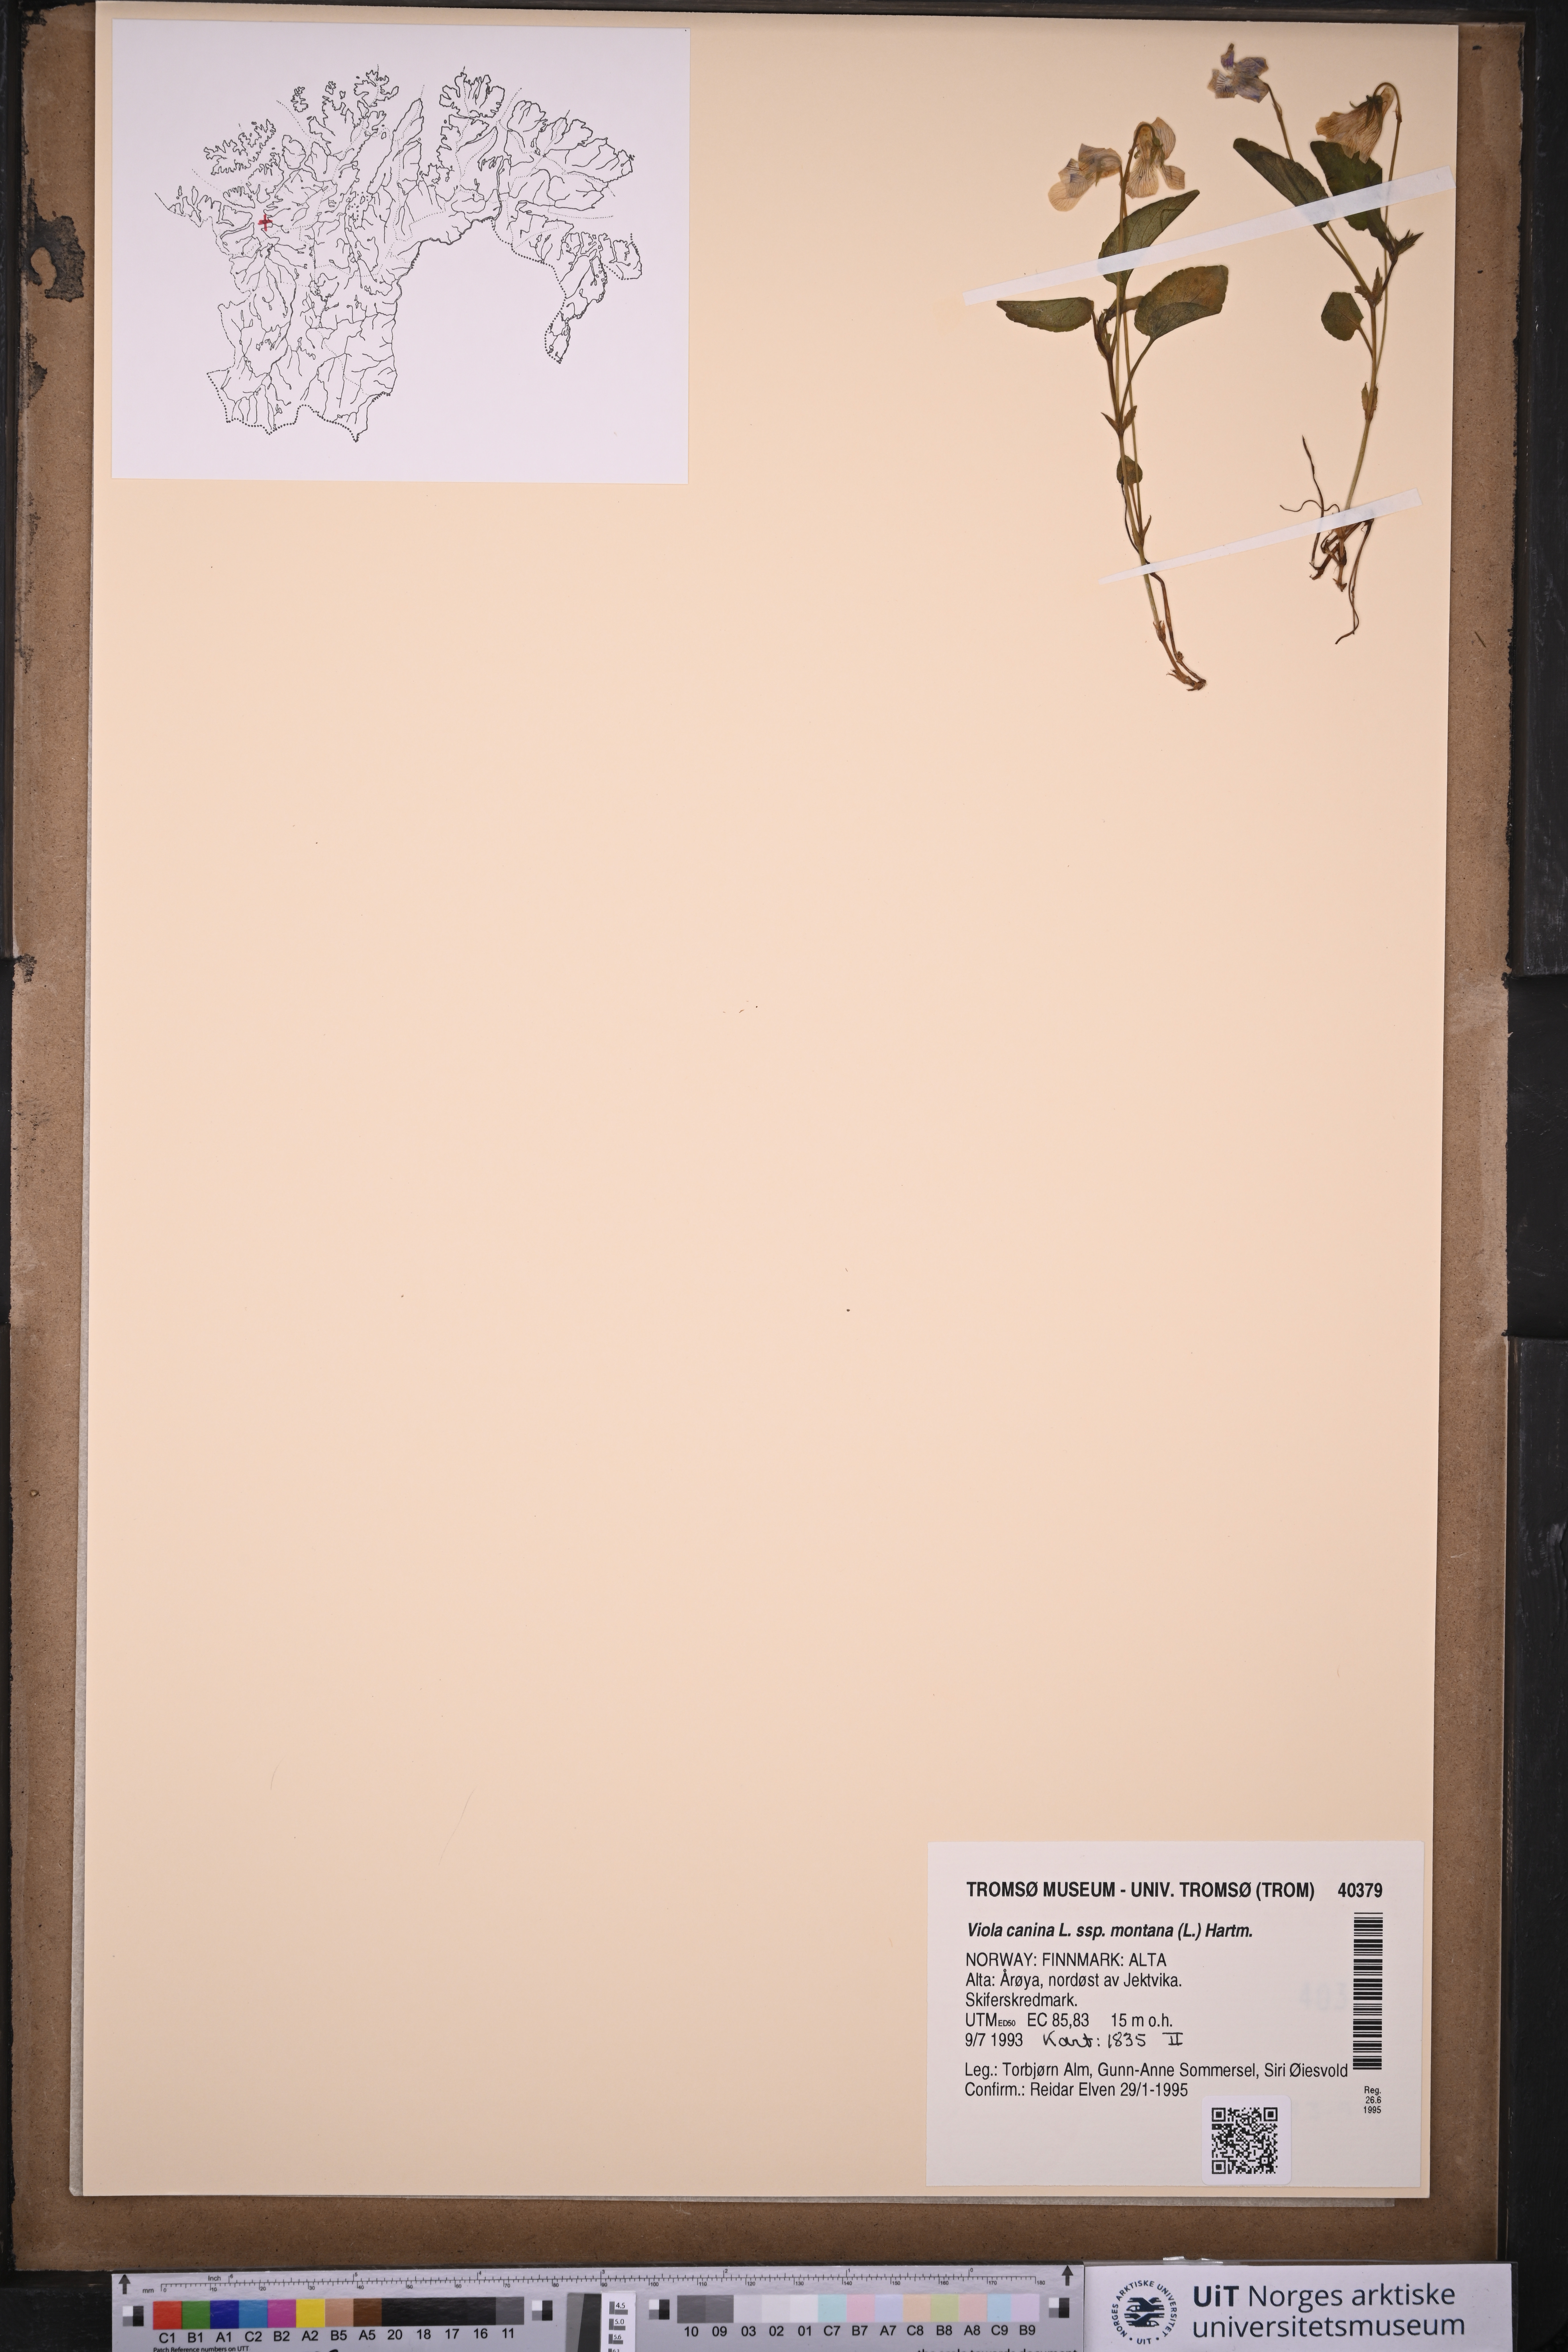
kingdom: Plantae
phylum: Tracheophyta
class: Magnoliopsida
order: Malpighiales
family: Violaceae
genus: Viola
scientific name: Viola ruppii
